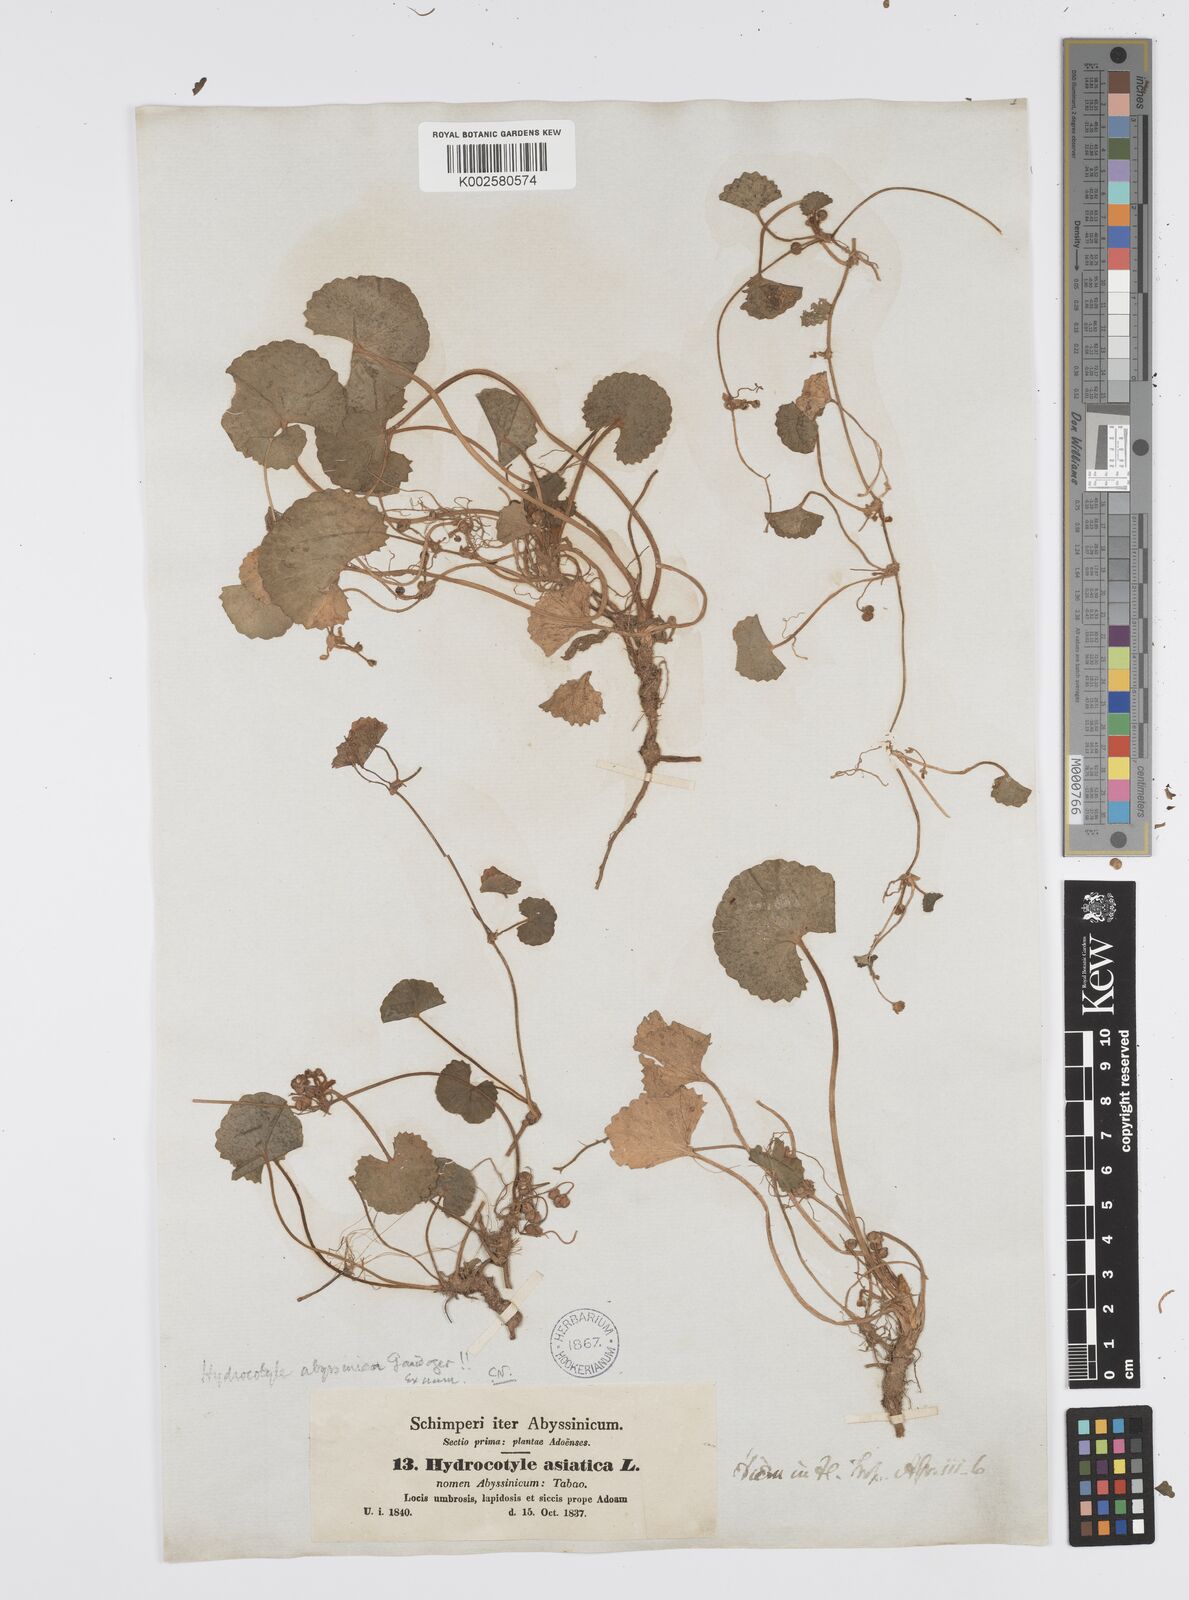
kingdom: Plantae
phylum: Tracheophyta
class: Magnoliopsida
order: Apiales
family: Apiaceae
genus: Centella
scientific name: Centella asiatica
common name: Spadeleaf
